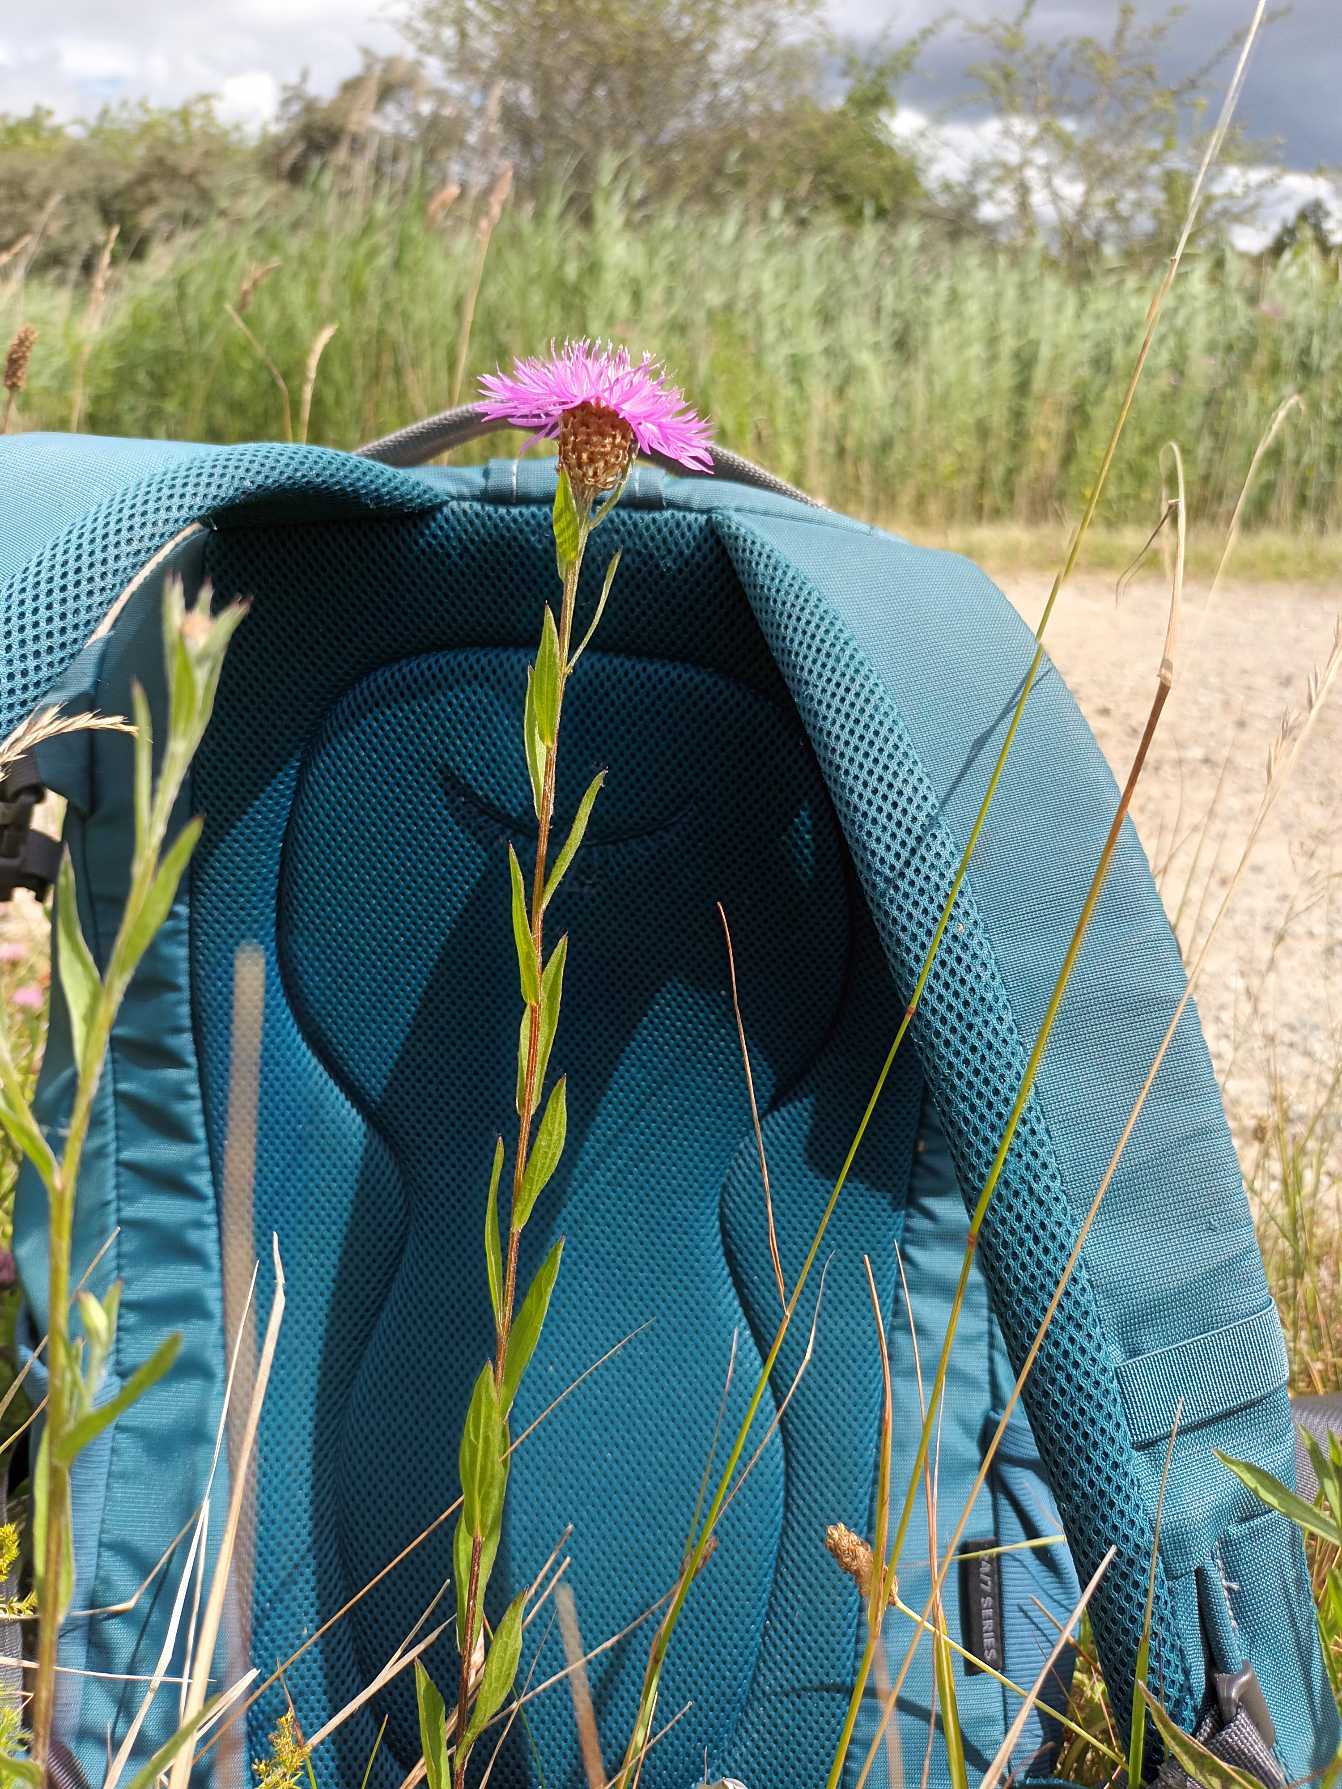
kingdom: Plantae
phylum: Tracheophyta
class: Magnoliopsida
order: Asterales
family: Asteraceae
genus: Centaurea
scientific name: Centaurea jacea
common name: Almindelig knopurt
